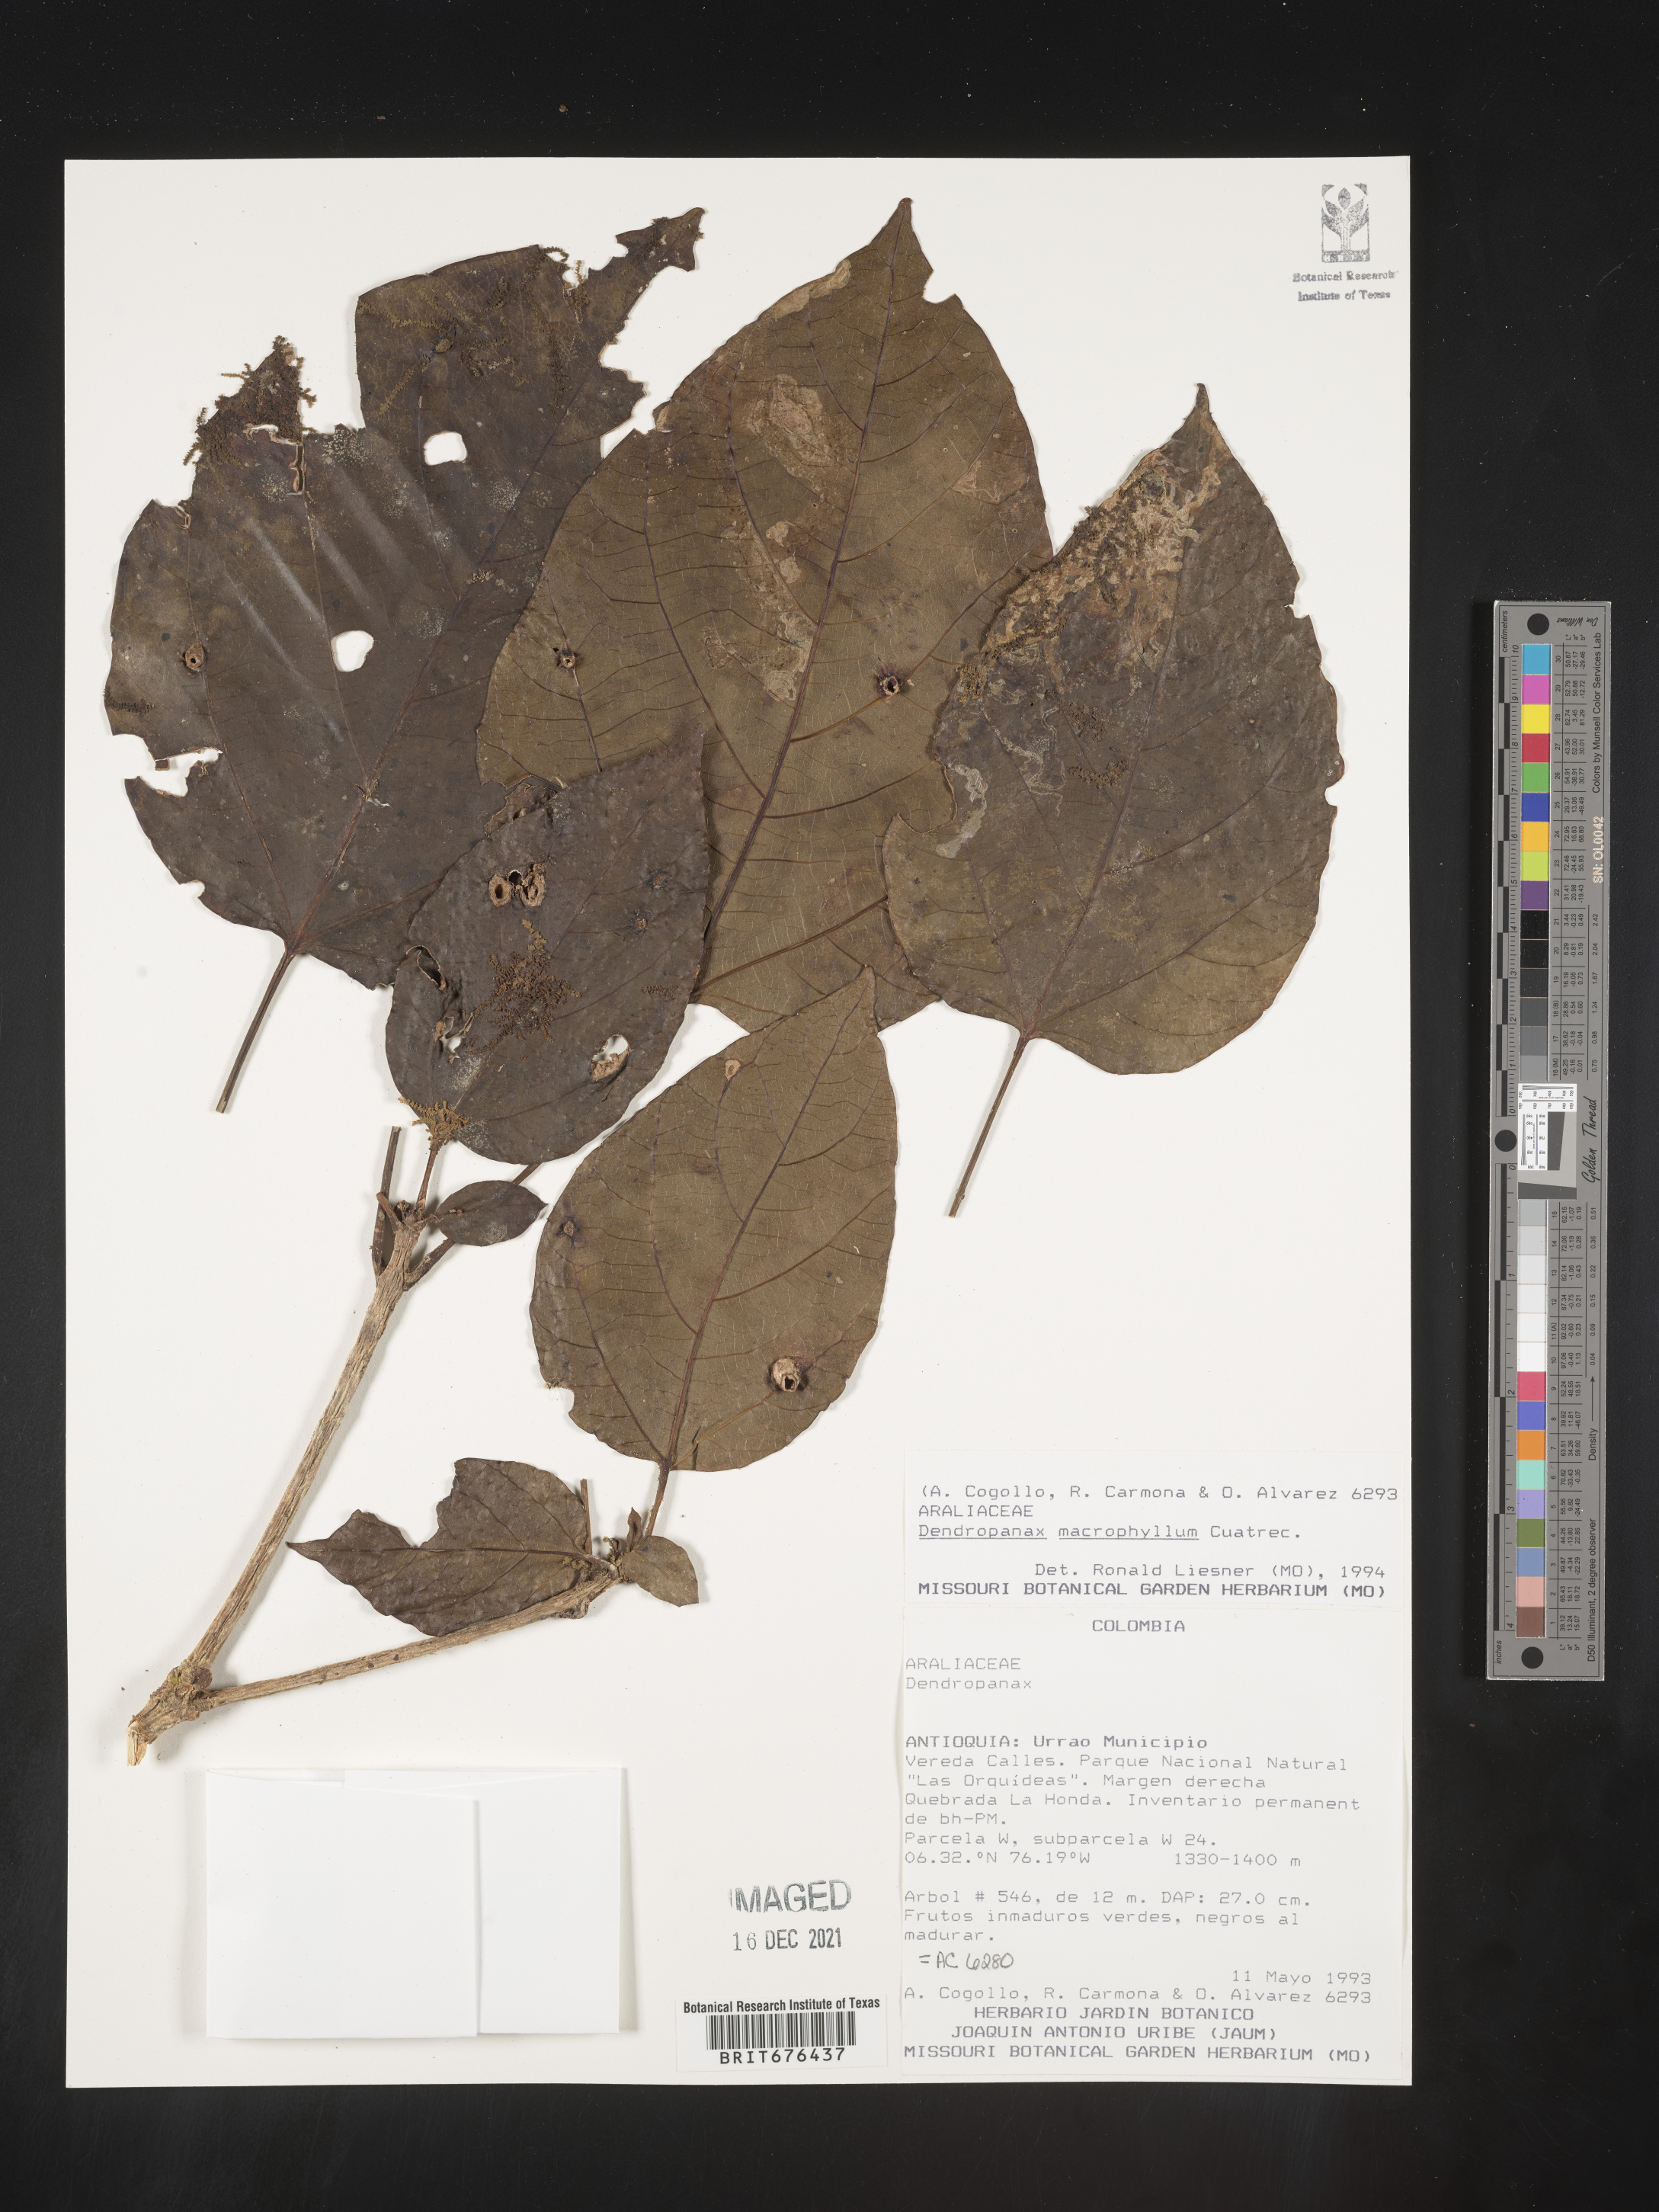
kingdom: Plantae
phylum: Tracheophyta
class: Magnoliopsida
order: Apiales
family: Araliaceae
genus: Dendropanax
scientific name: Dendropanax
